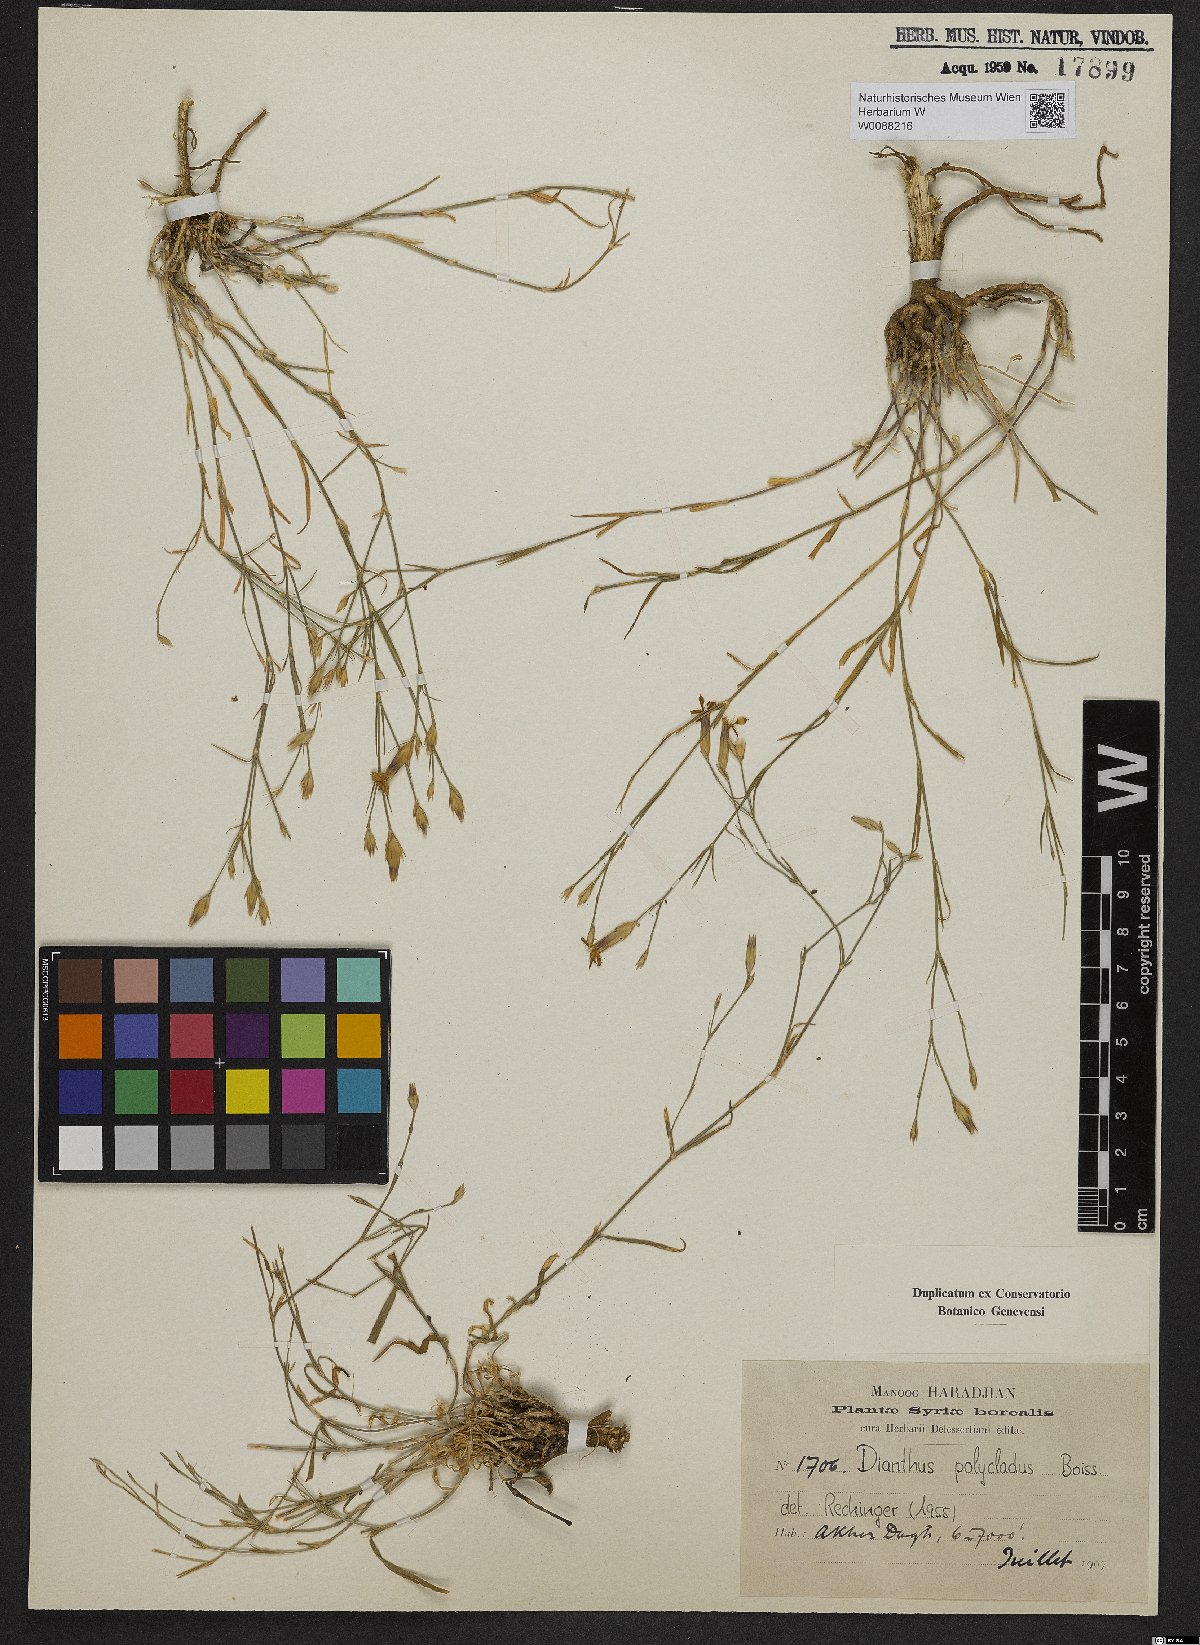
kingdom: Plantae
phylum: Tracheophyta
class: Magnoliopsida
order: Caryophyllales
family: Caryophyllaceae
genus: Dianthus
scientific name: Dianthus strictus
